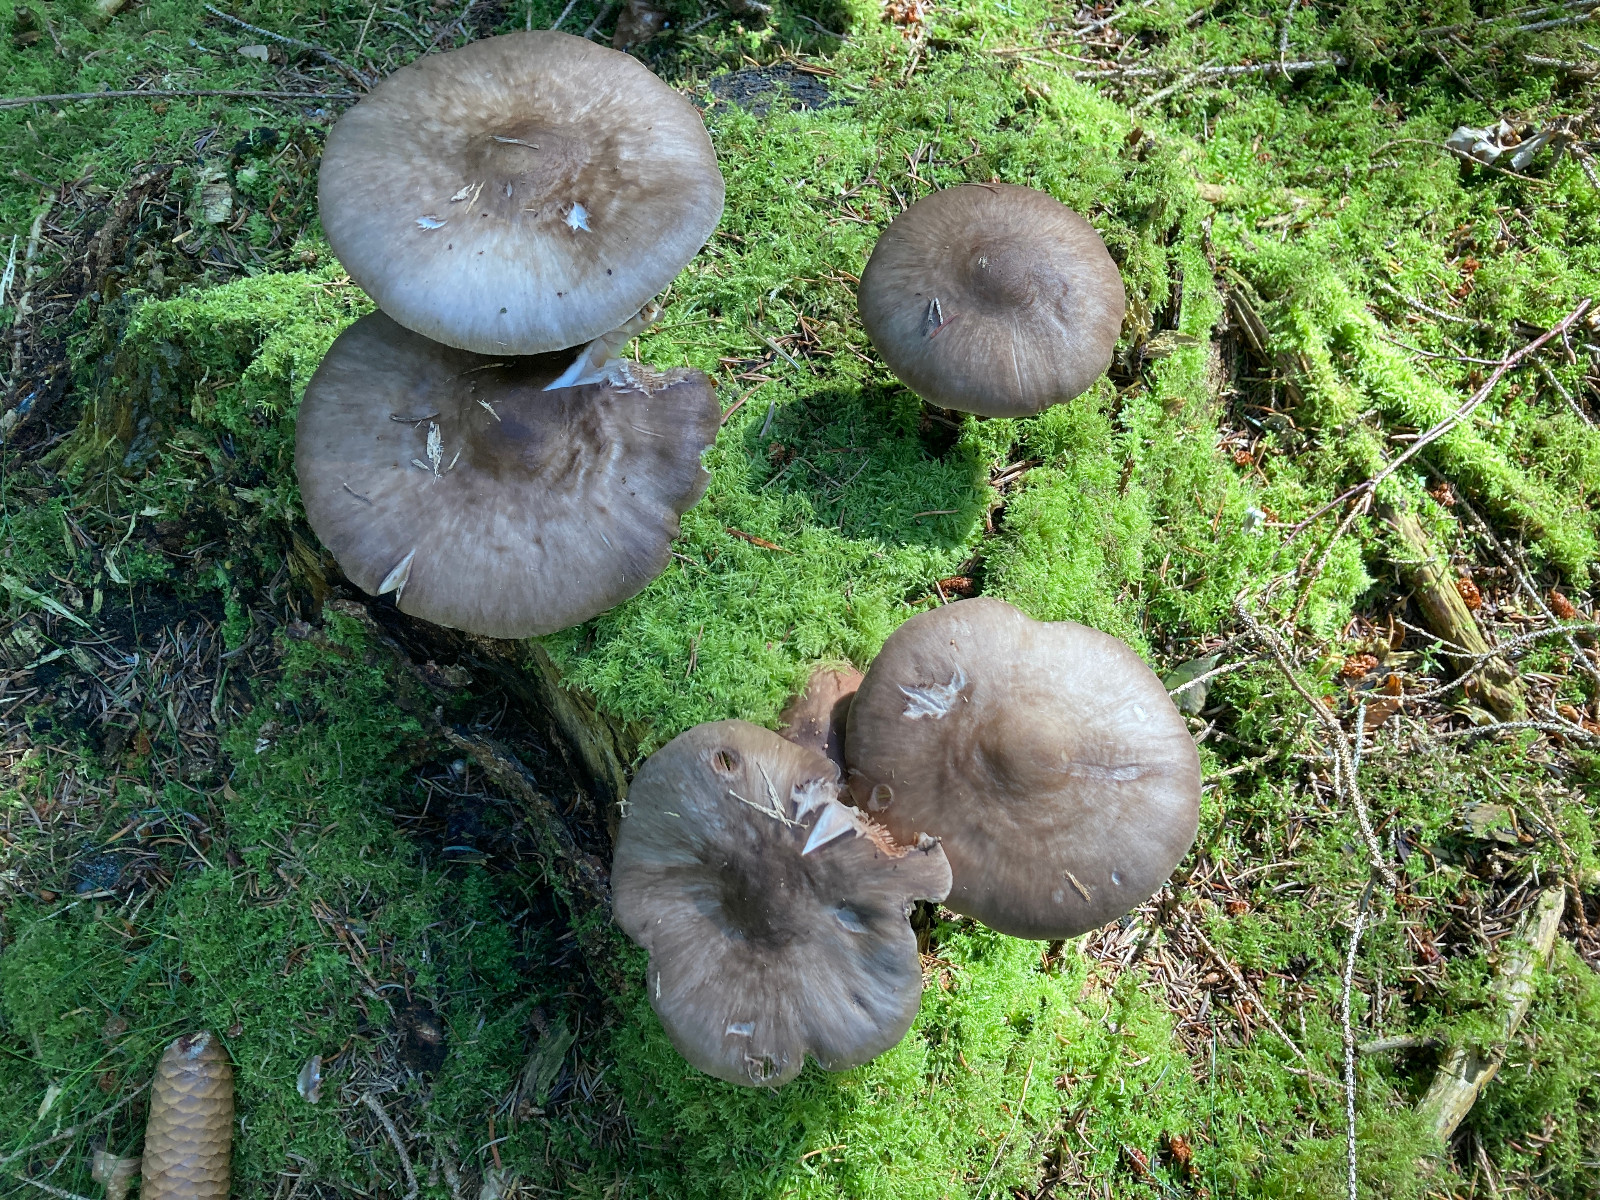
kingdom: Fungi
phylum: Basidiomycota
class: Agaricomycetes
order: Agaricales
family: Pluteaceae
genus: Pluteus
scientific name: Pluteus cervinus
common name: sodfarvet skærmhat
